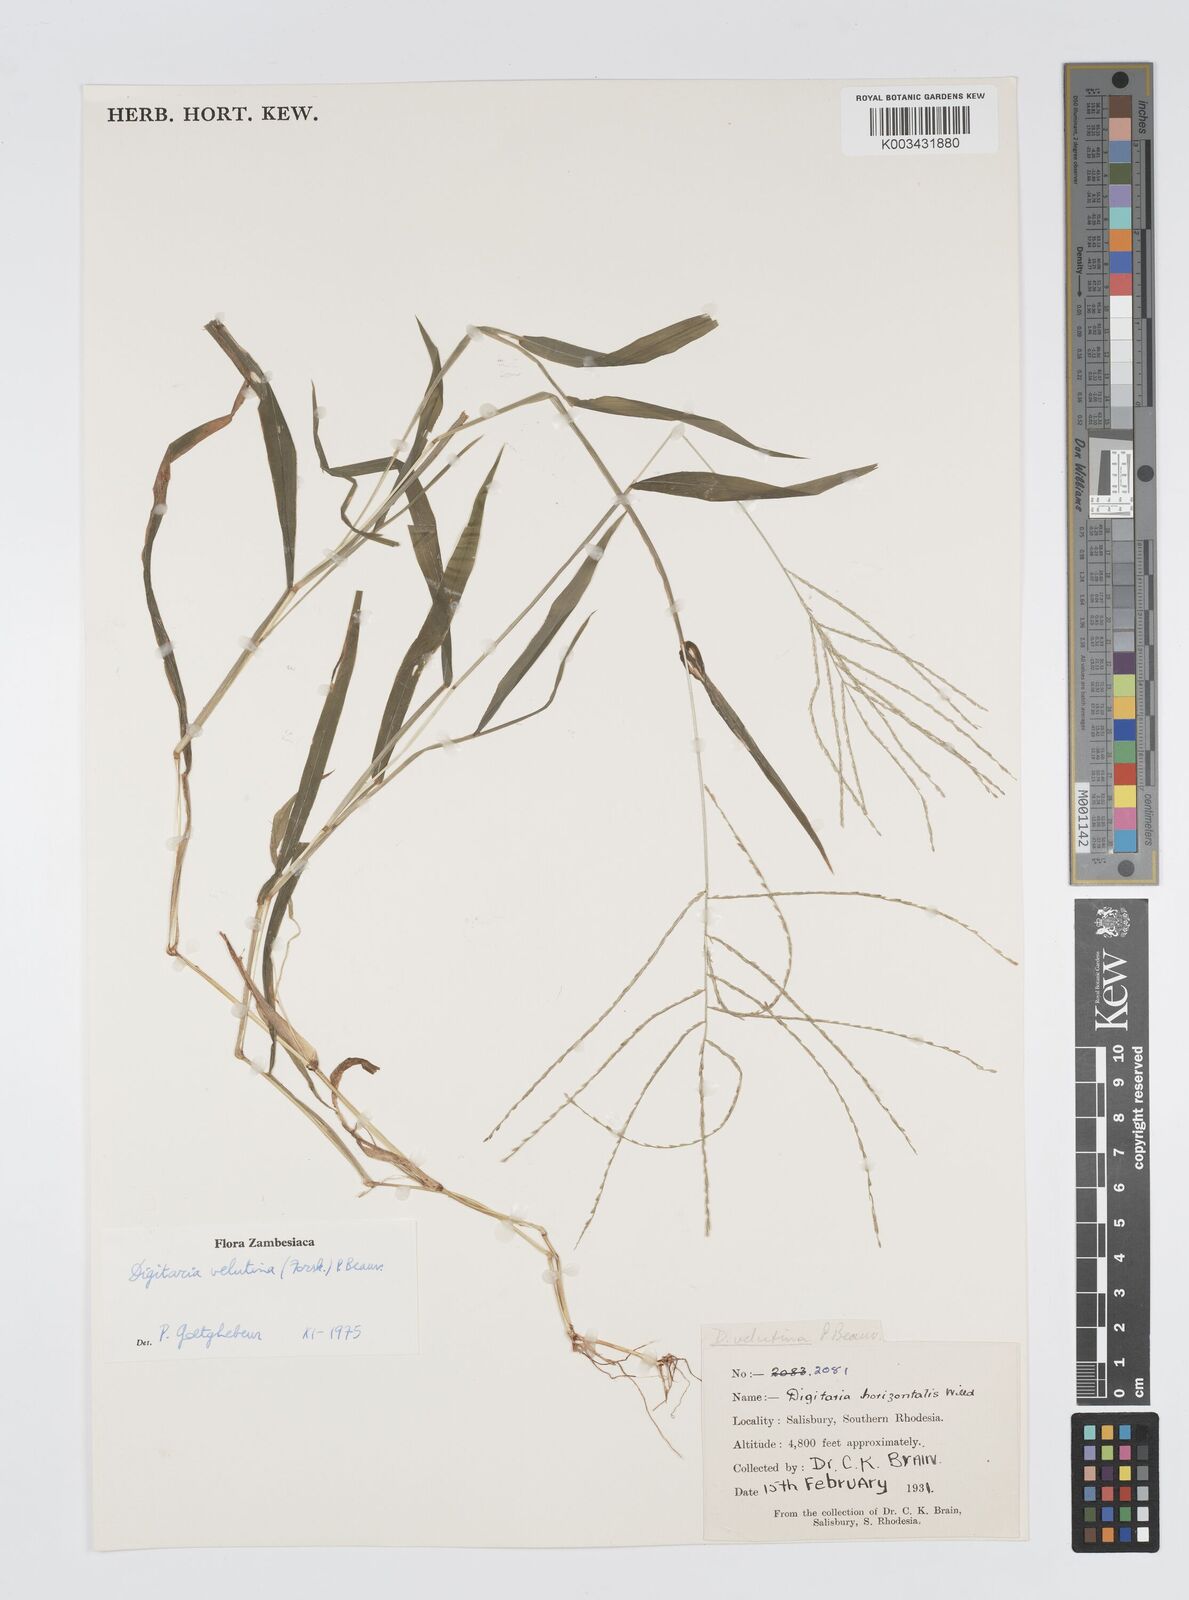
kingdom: Plantae
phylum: Tracheophyta
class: Liliopsida
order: Poales
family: Poaceae
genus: Digitaria
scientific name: Digitaria velutina
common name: Long-plume finger grass
